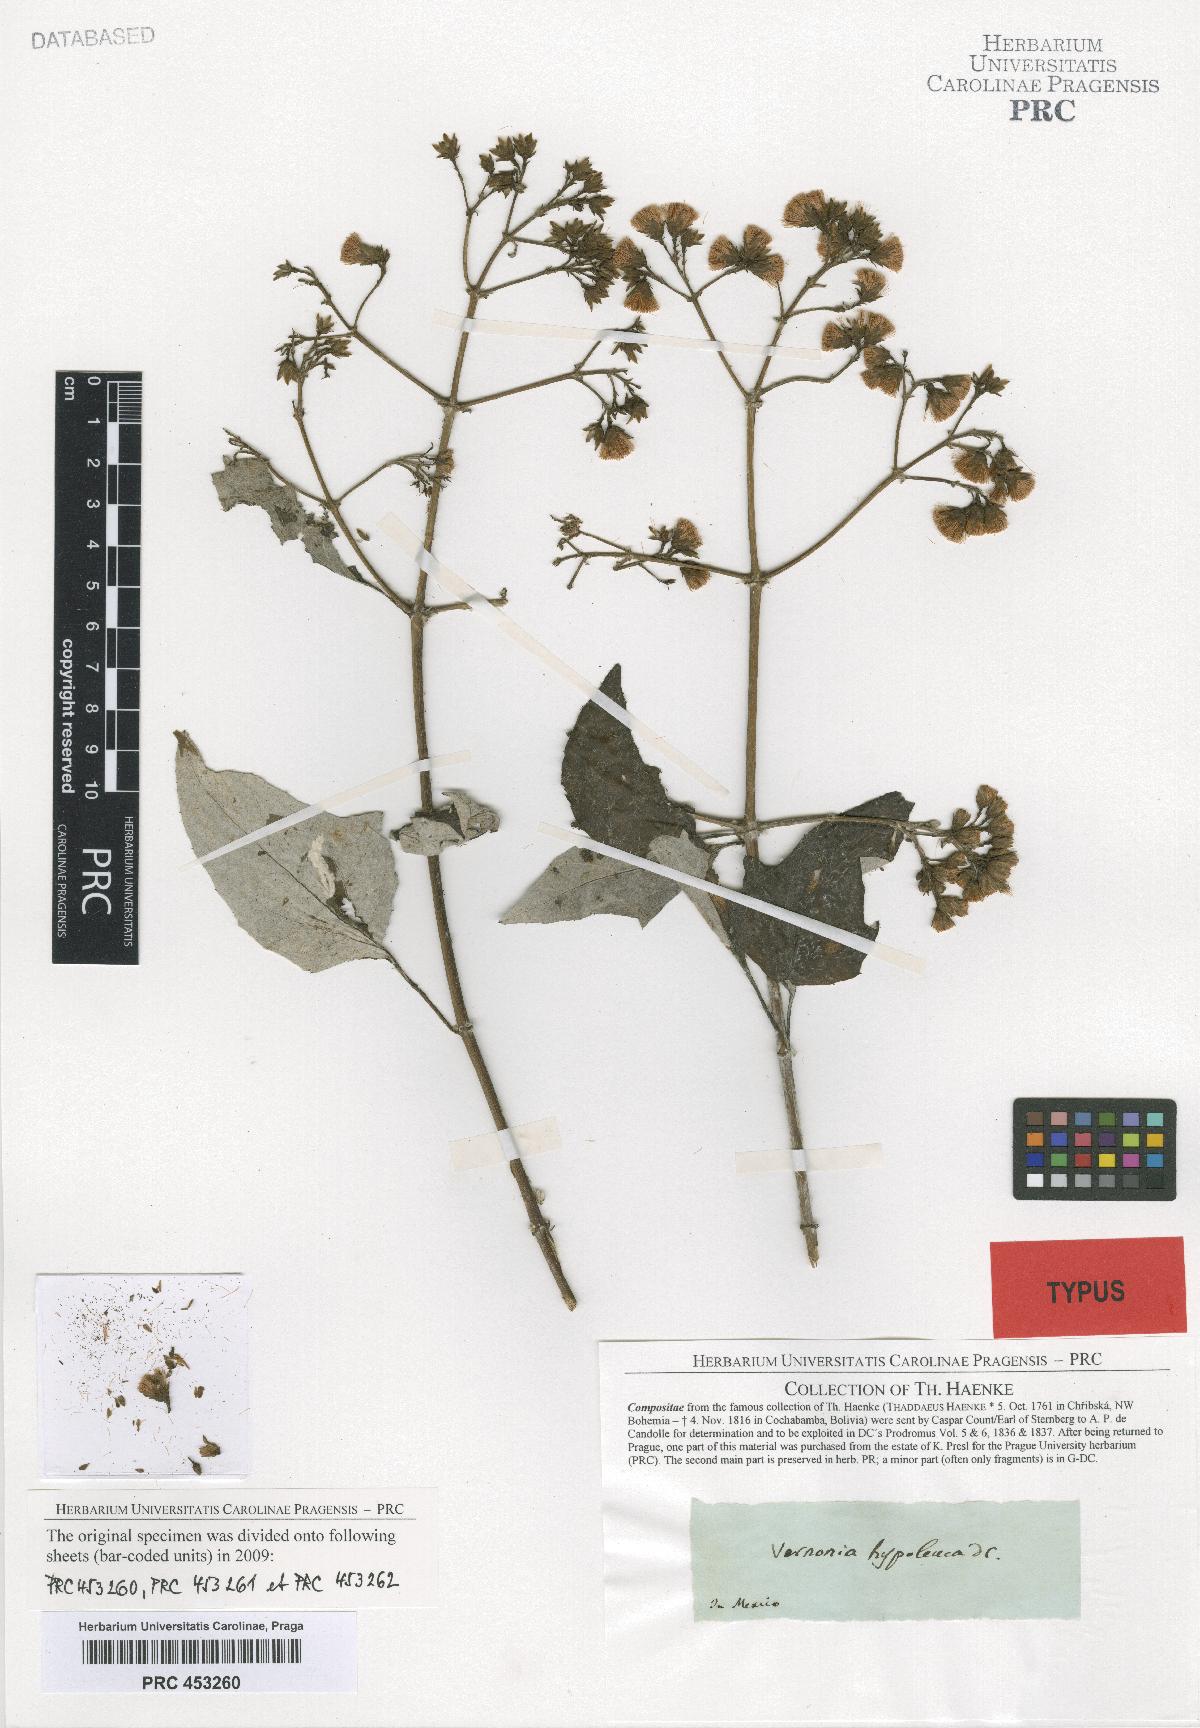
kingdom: Plantae
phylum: Tracheophyta
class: Magnoliopsida
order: Asterales
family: Asteraceae
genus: Sinclairia
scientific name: Sinclairia caducifolia
